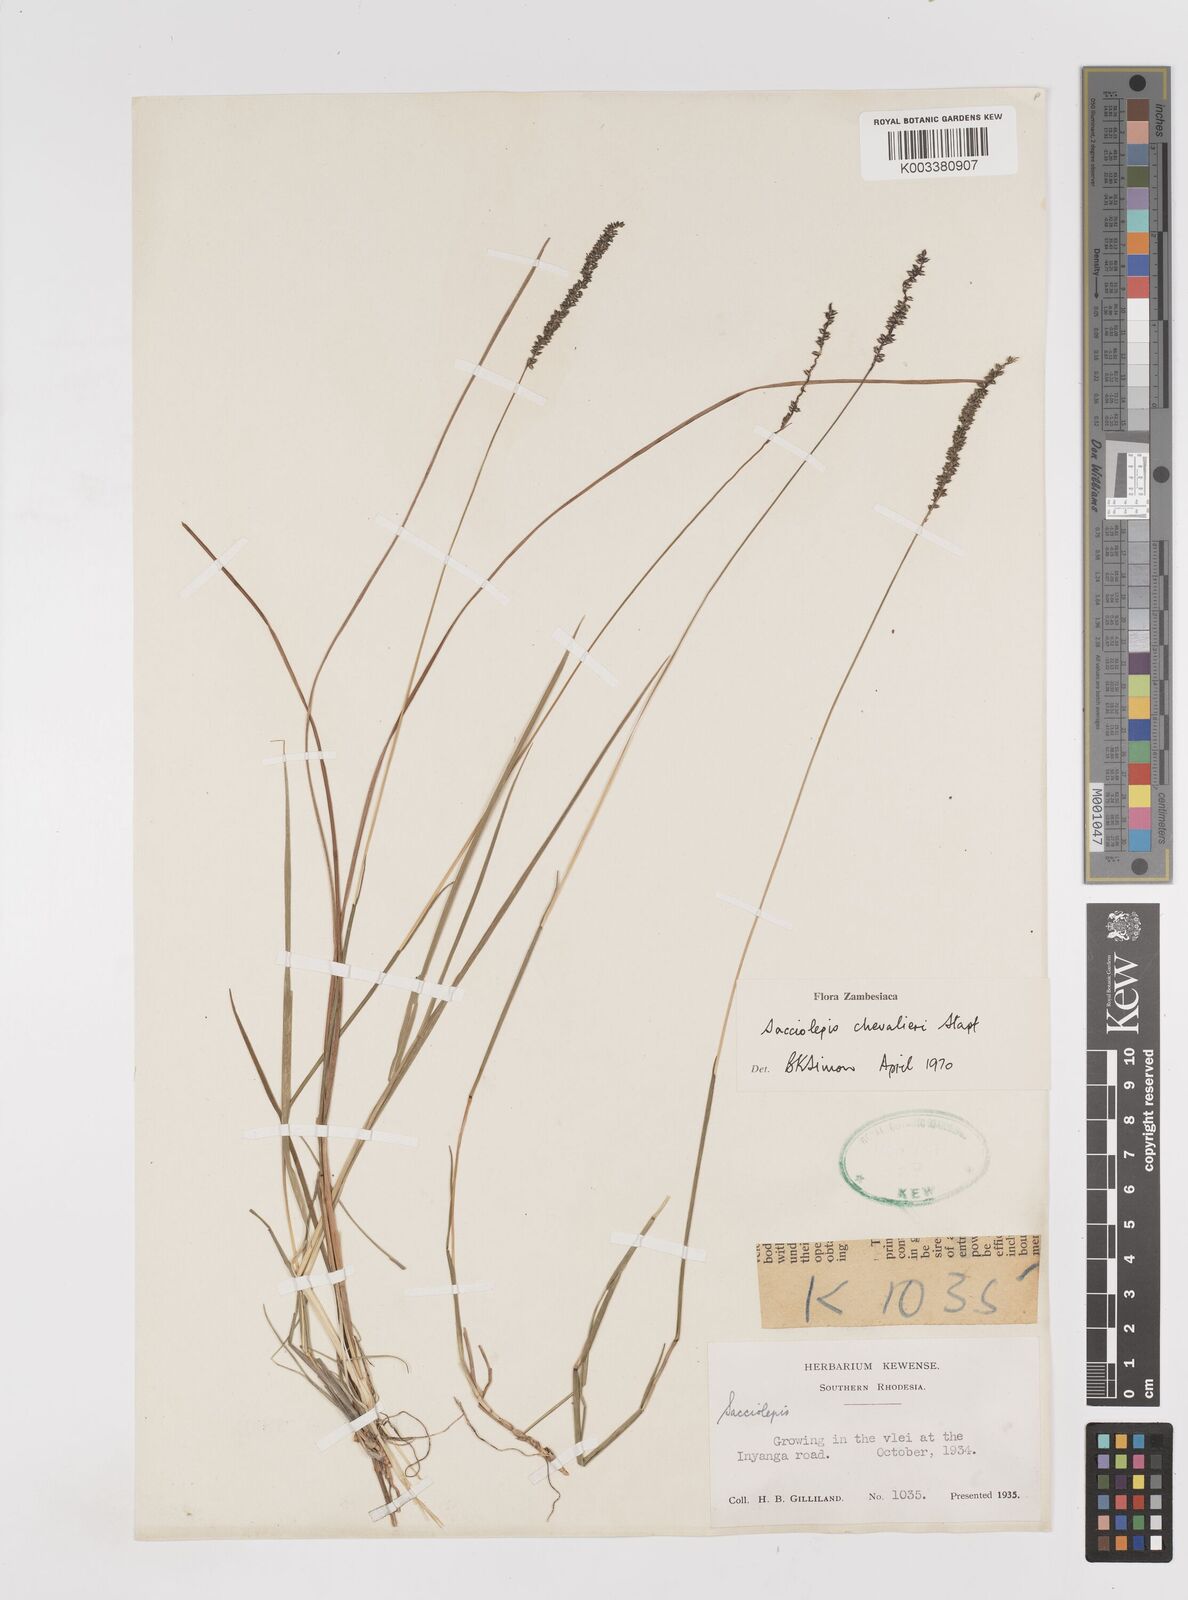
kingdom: Plantae
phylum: Tracheophyta
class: Liliopsida
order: Poales
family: Poaceae
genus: Sacciolepis
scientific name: Sacciolepis chevalieri
